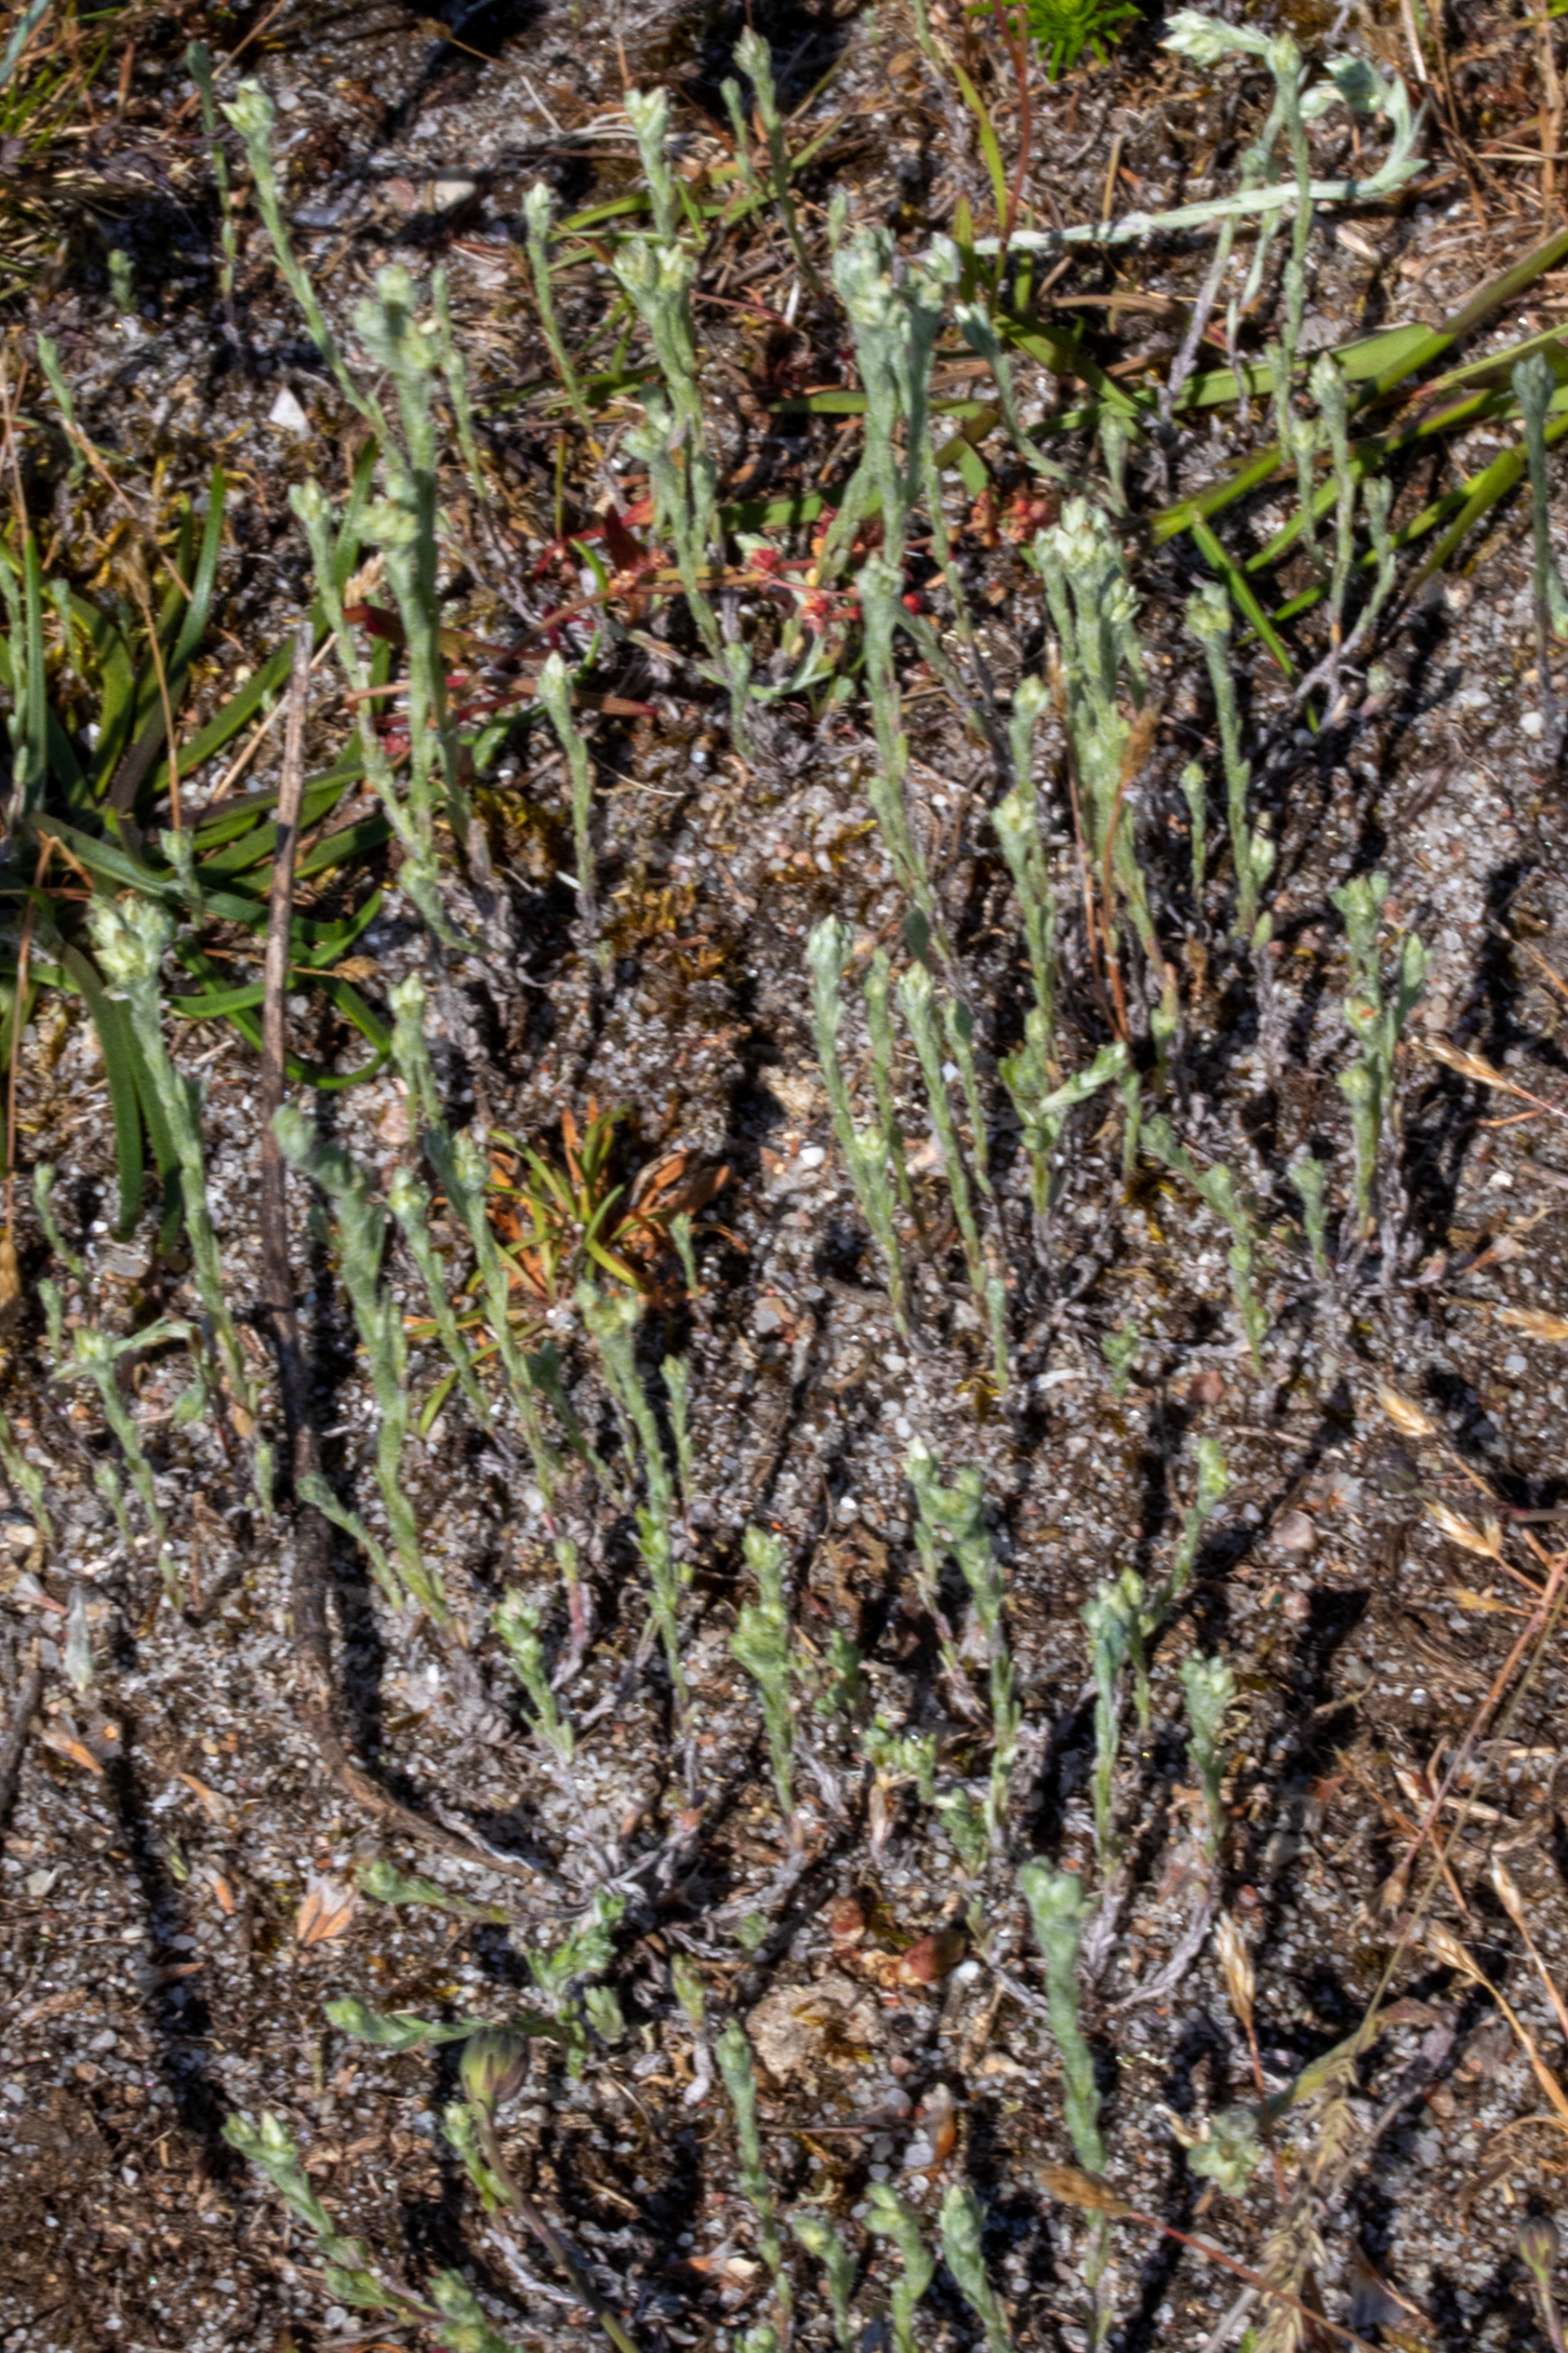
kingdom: Plantae
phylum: Tracheophyta
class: Magnoliopsida
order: Asterales
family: Asteraceae
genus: Filago
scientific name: Filago
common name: Museurt (Filago-slægten)
